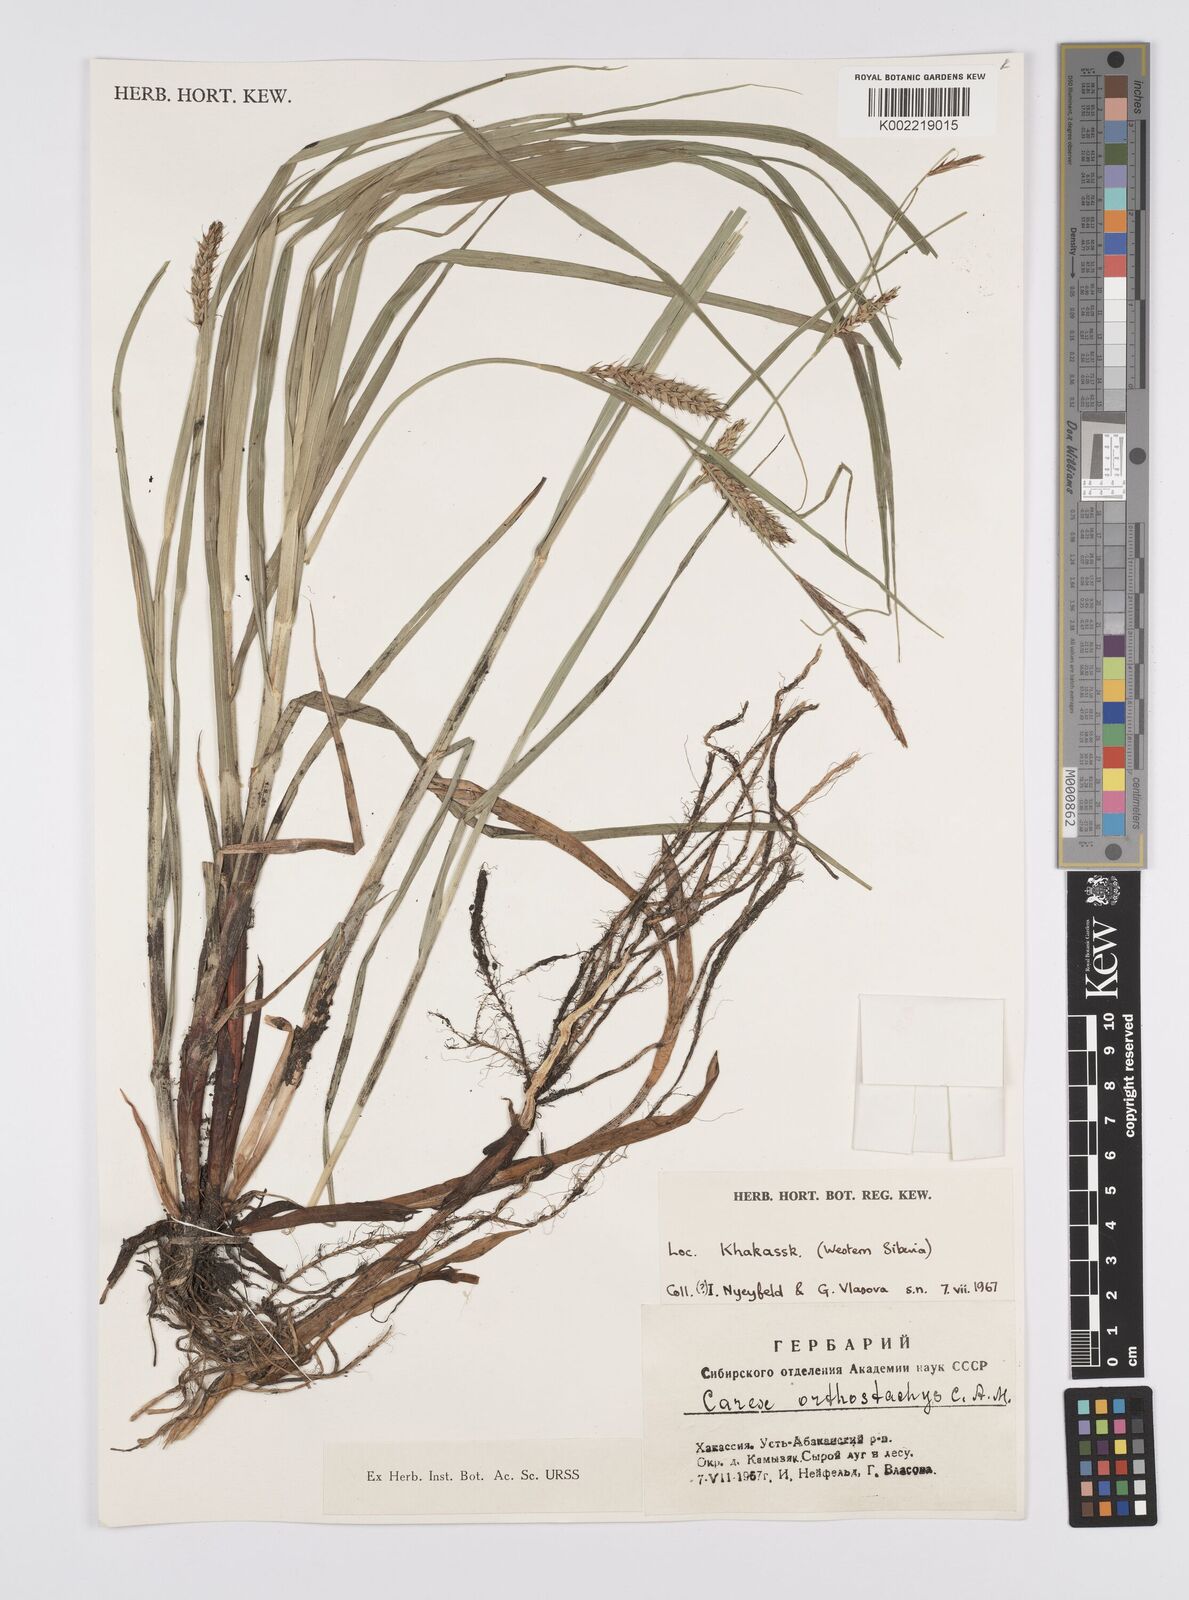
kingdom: Plantae
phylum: Tracheophyta
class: Liliopsida
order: Poales
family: Cyperaceae
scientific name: Cyperaceae
